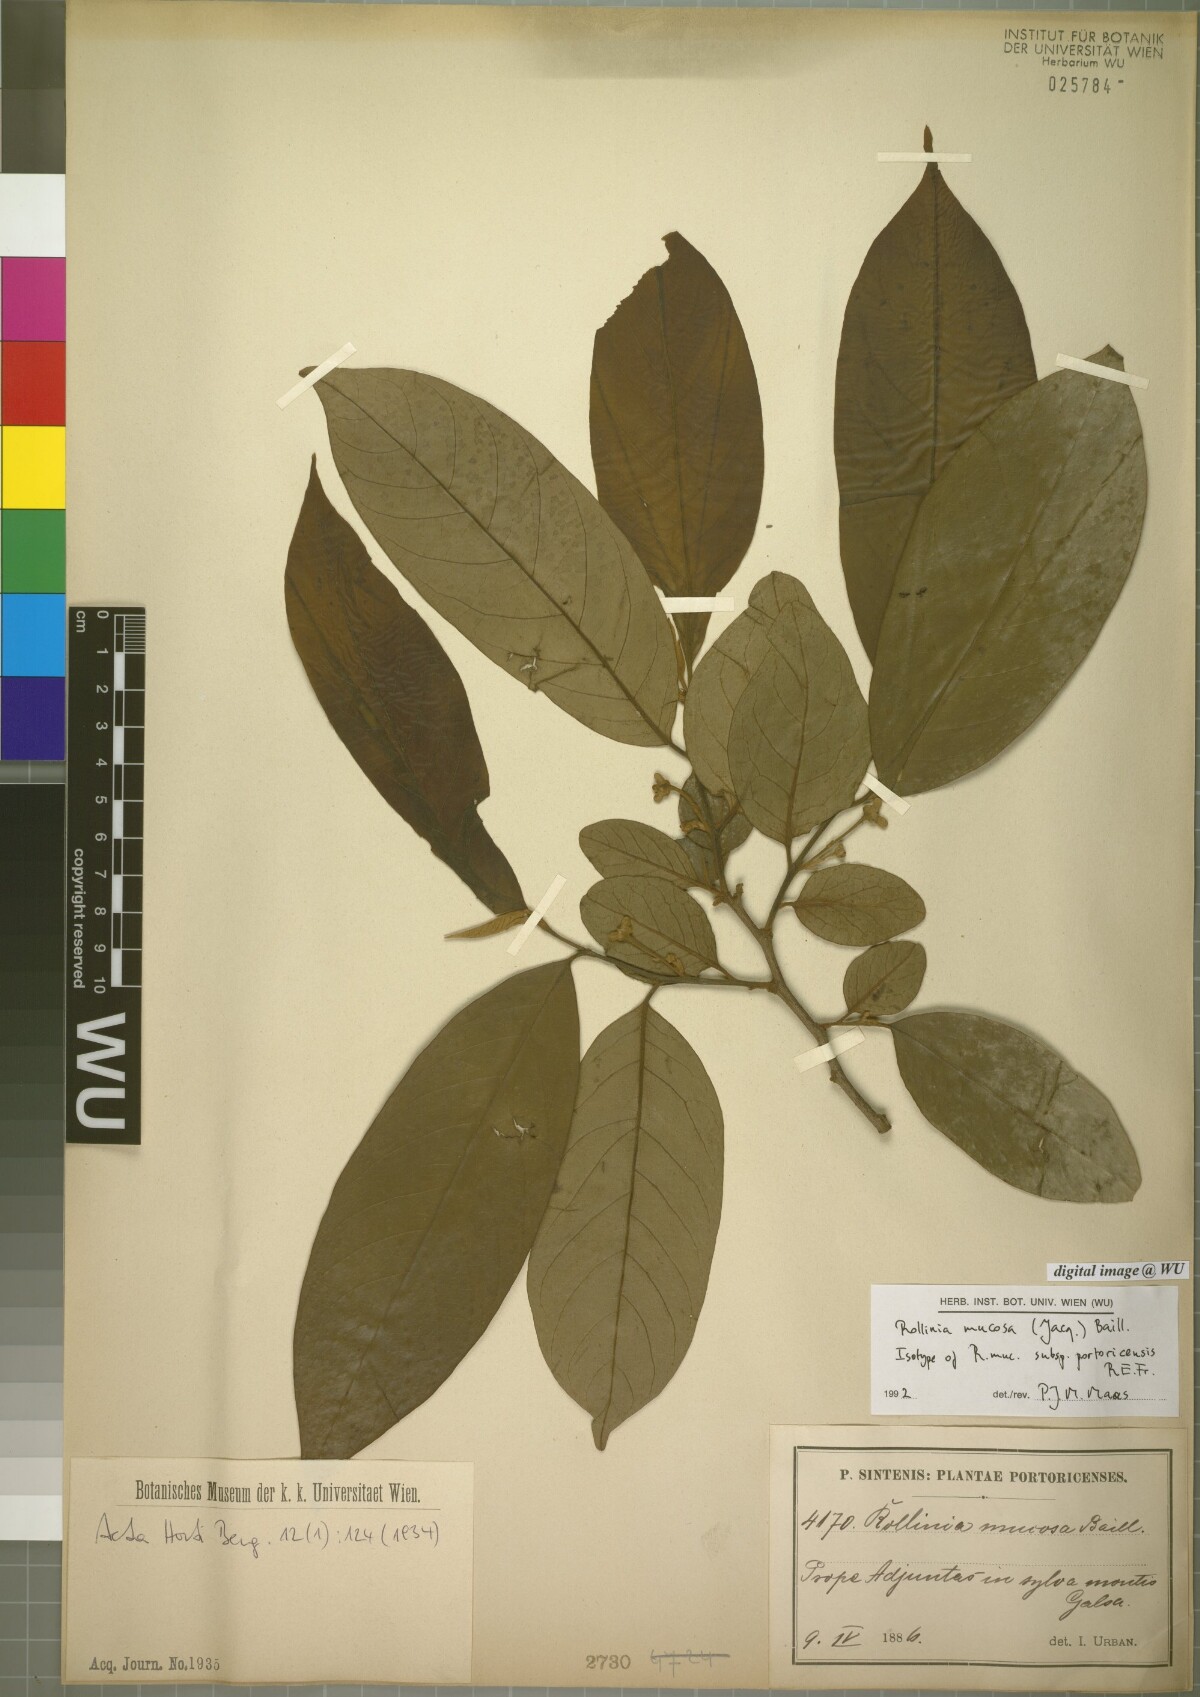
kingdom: Plantae
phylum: Tracheophyta
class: Magnoliopsida
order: Magnoliales
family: Annonaceae
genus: Annona
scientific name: Annona mucosa
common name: Sugar apple
